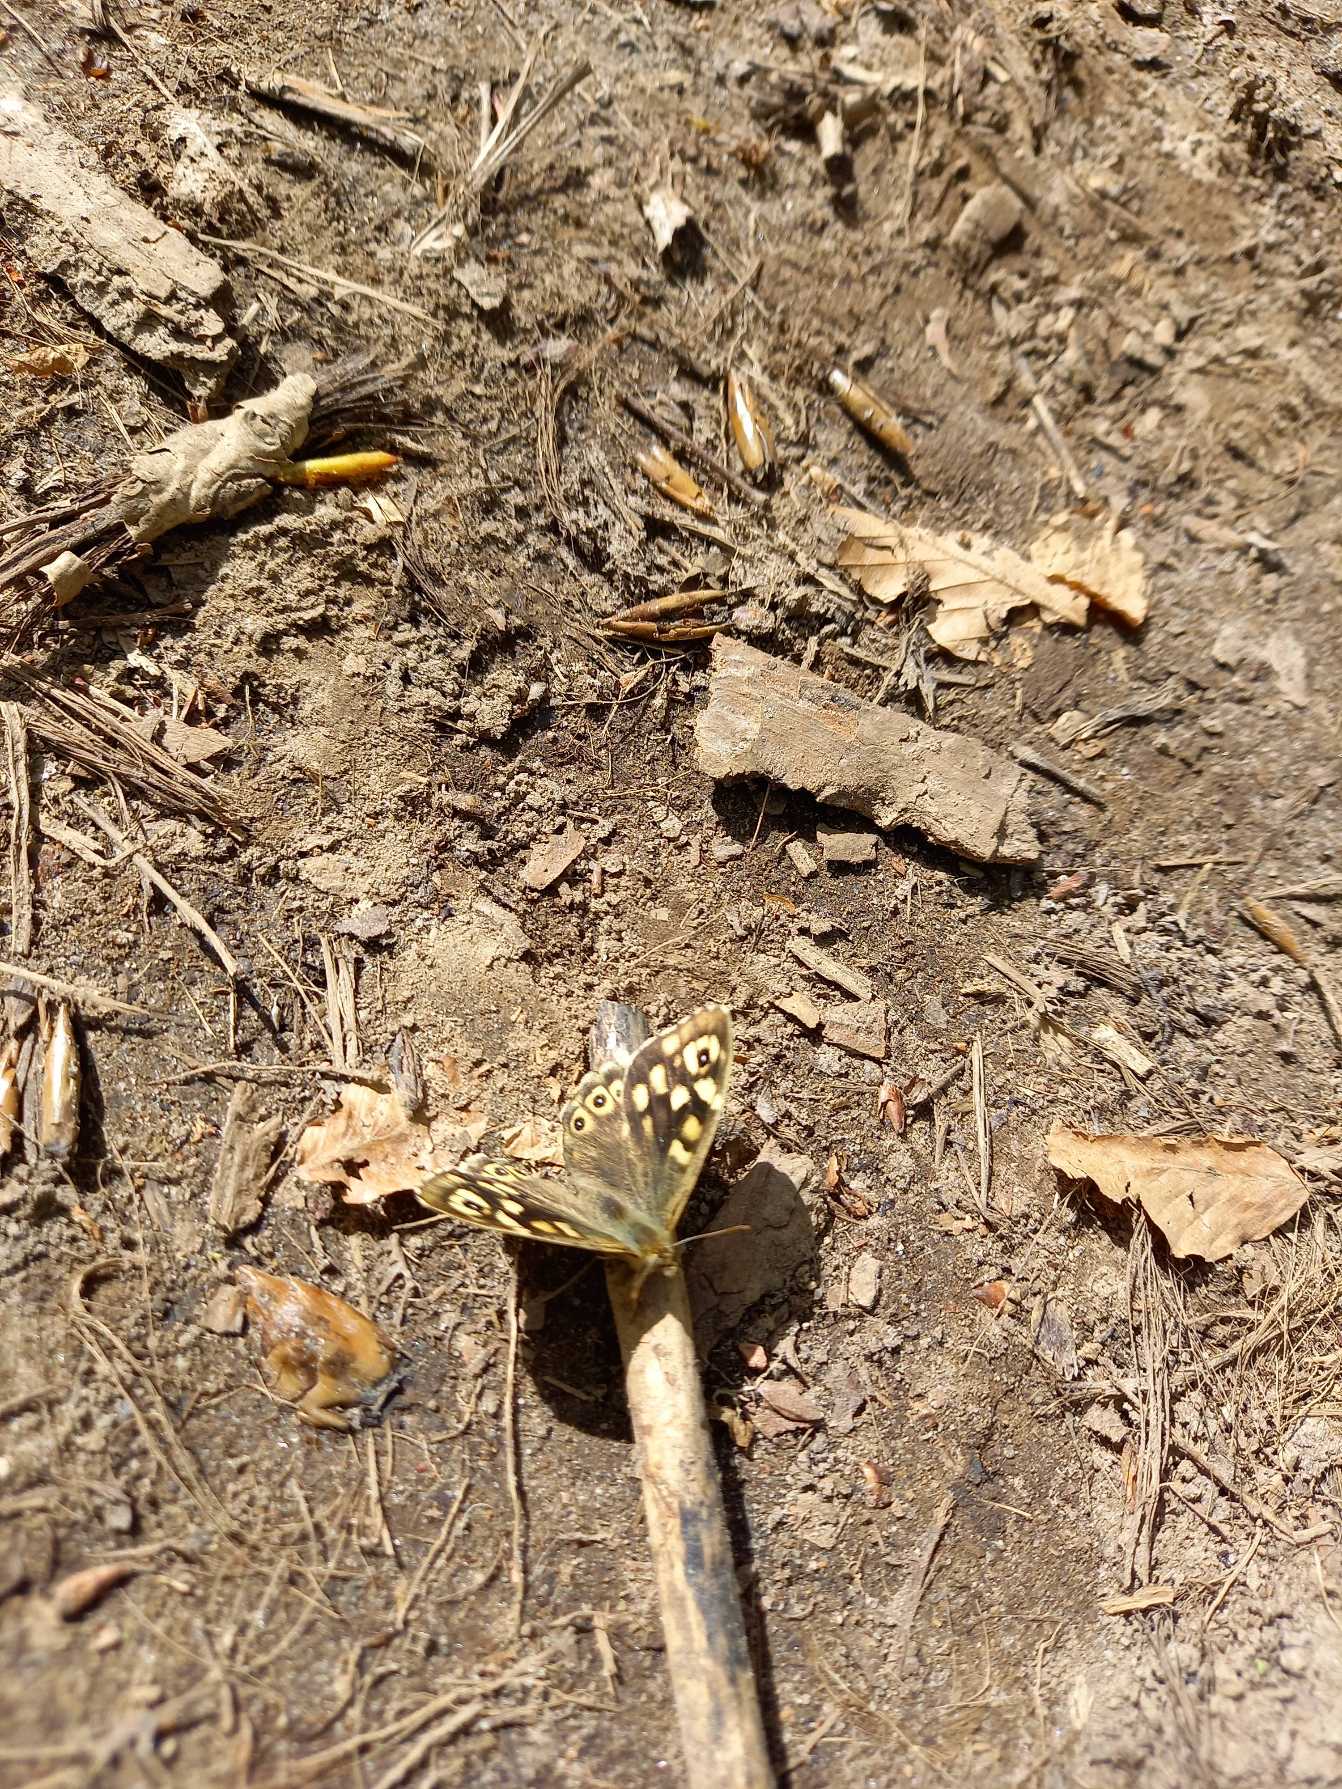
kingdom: Animalia
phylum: Arthropoda
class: Insecta
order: Lepidoptera
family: Nymphalidae
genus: Pararge
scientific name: Pararge aegeria
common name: Skovrandøje
